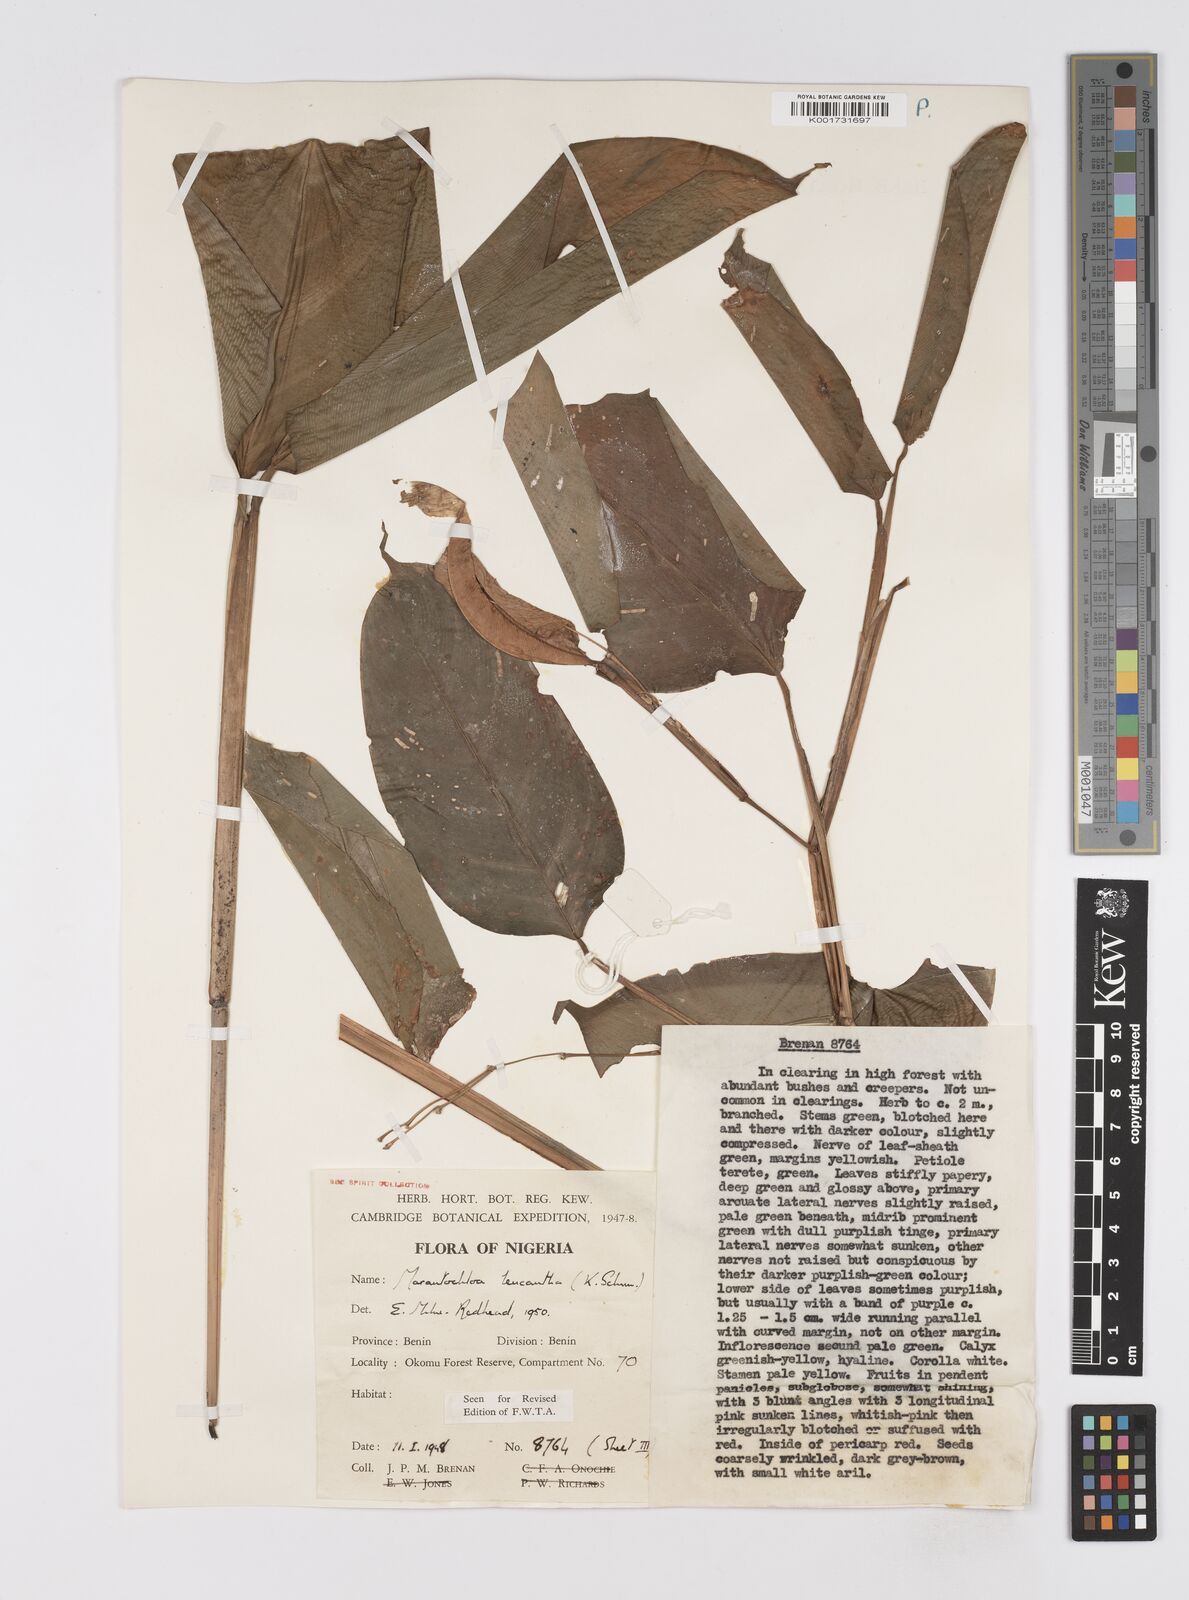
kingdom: Plantae
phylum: Tracheophyta
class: Liliopsida
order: Zingiberales
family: Marantaceae
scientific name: Marantaceae
